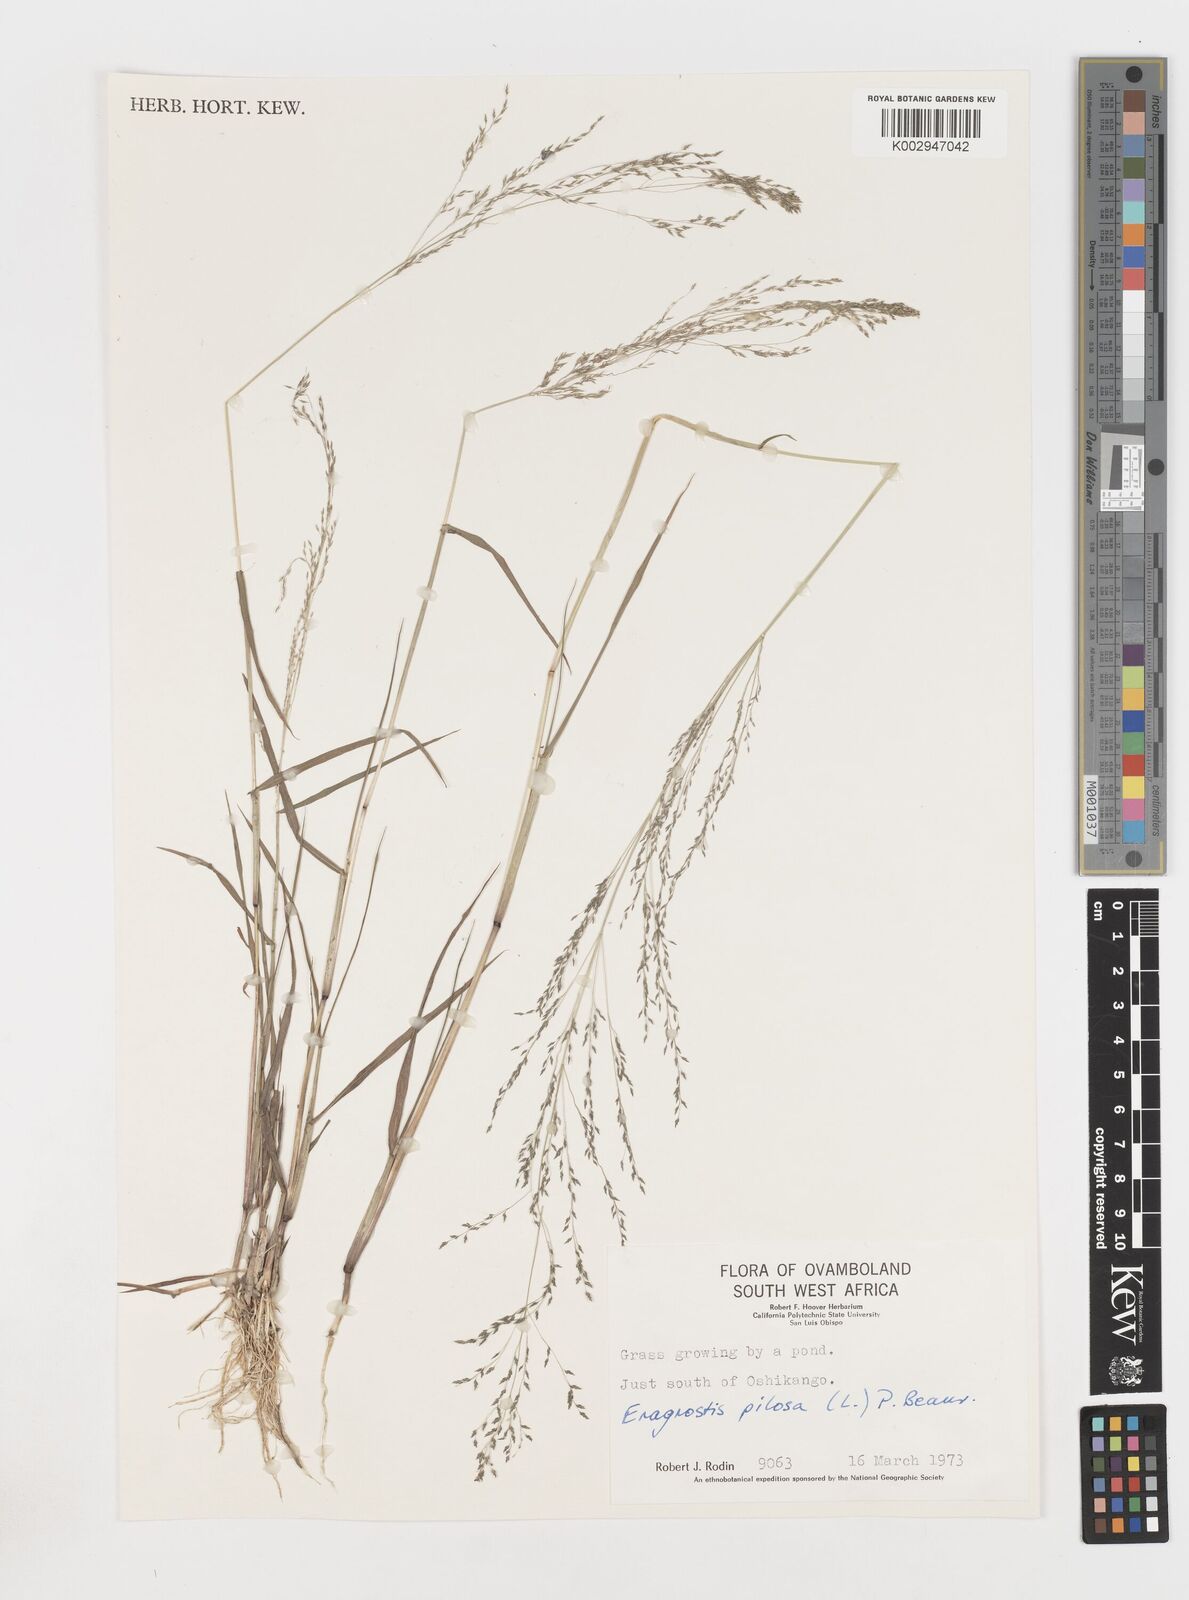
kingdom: Plantae
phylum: Tracheophyta
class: Liliopsida
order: Poales
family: Poaceae
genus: Eragrostis
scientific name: Eragrostis pilosa
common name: Indian lovegrass
